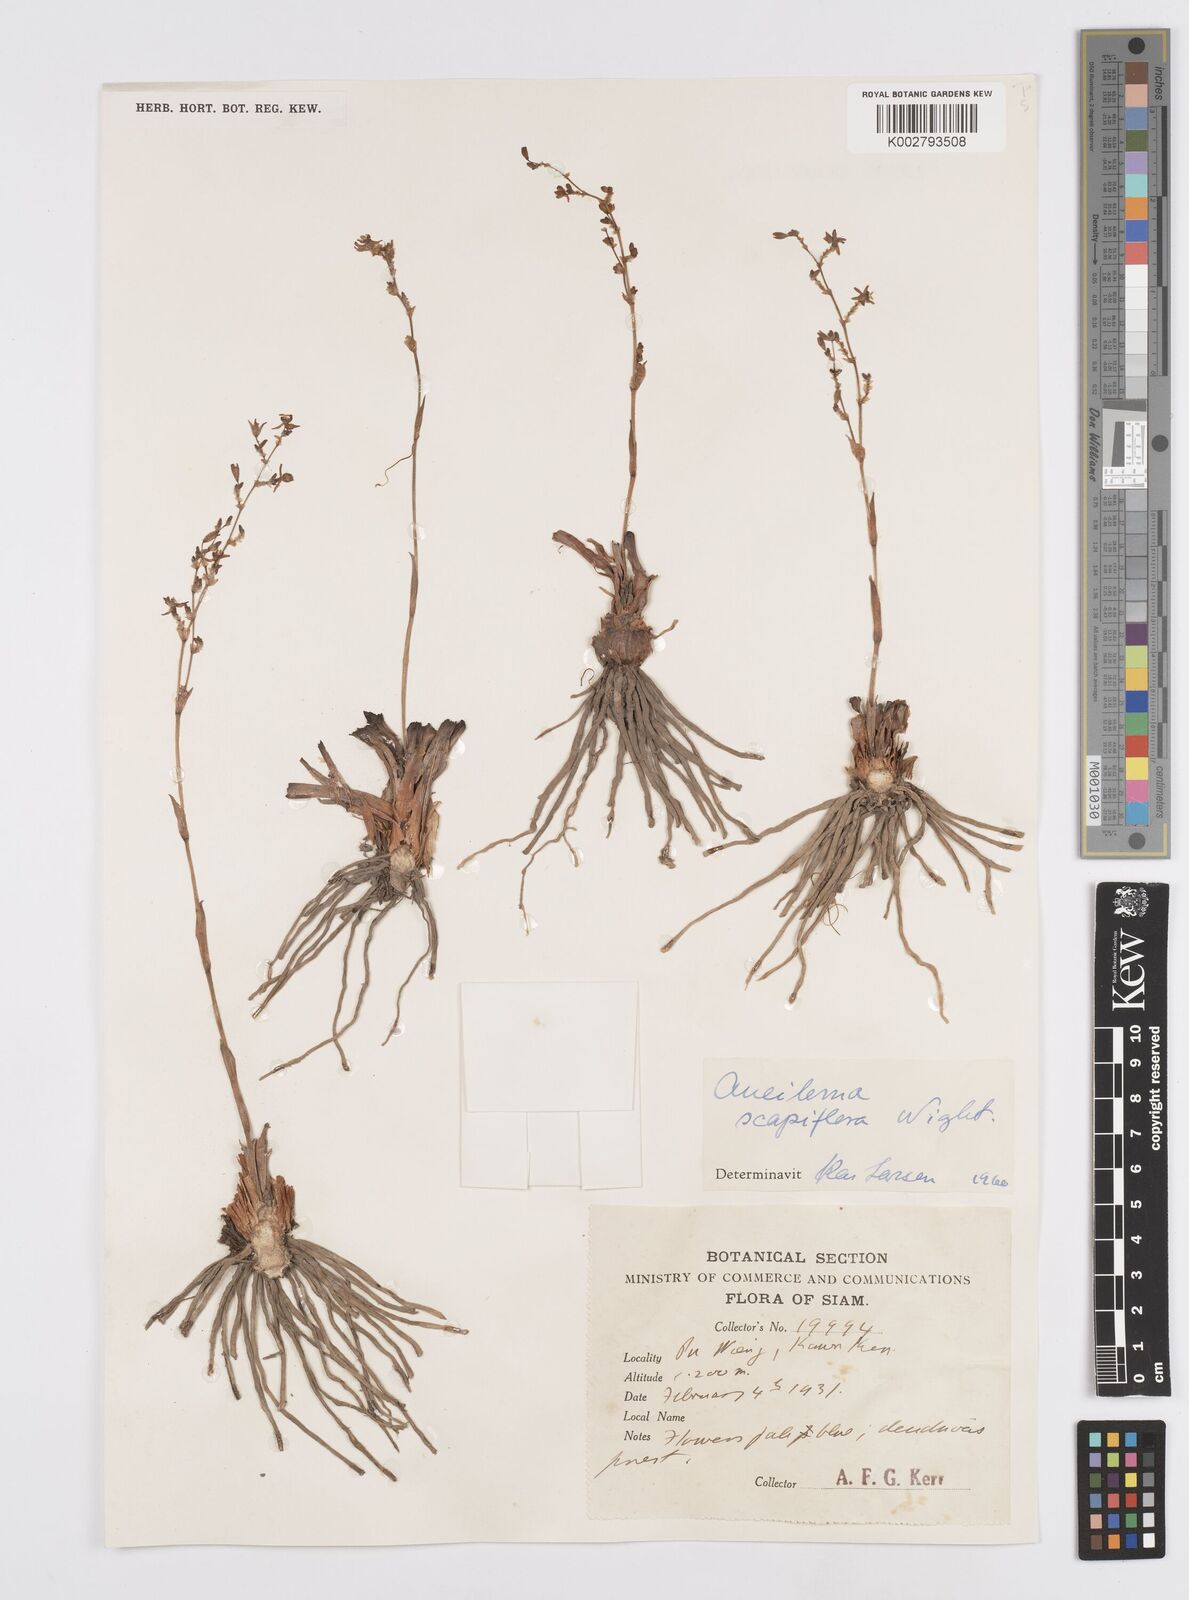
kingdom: Plantae
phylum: Tracheophyta
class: Liliopsida
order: Commelinales
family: Commelinaceae
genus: Murdannia
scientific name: Murdannia edulis
